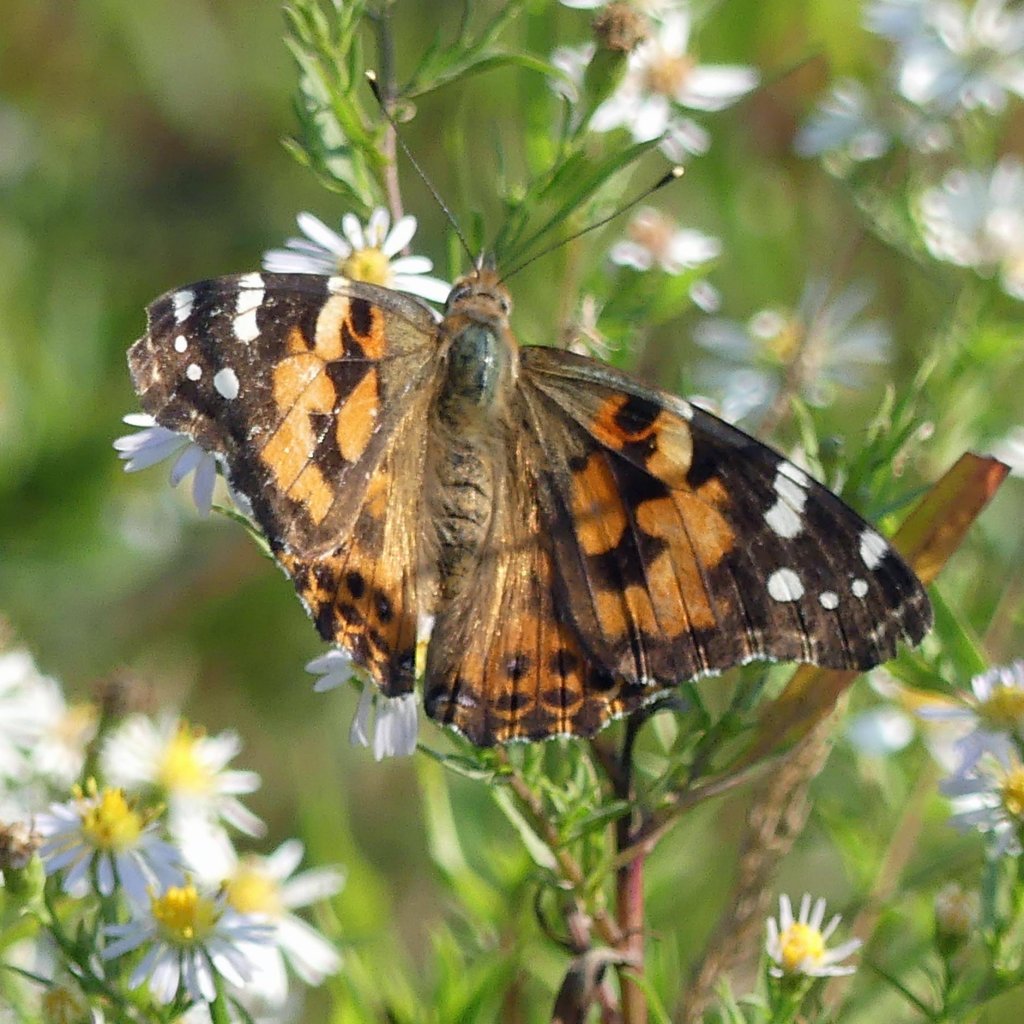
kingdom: Animalia
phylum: Arthropoda
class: Insecta
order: Lepidoptera
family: Nymphalidae
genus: Vanessa
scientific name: Vanessa cardui
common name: Painted Lady
